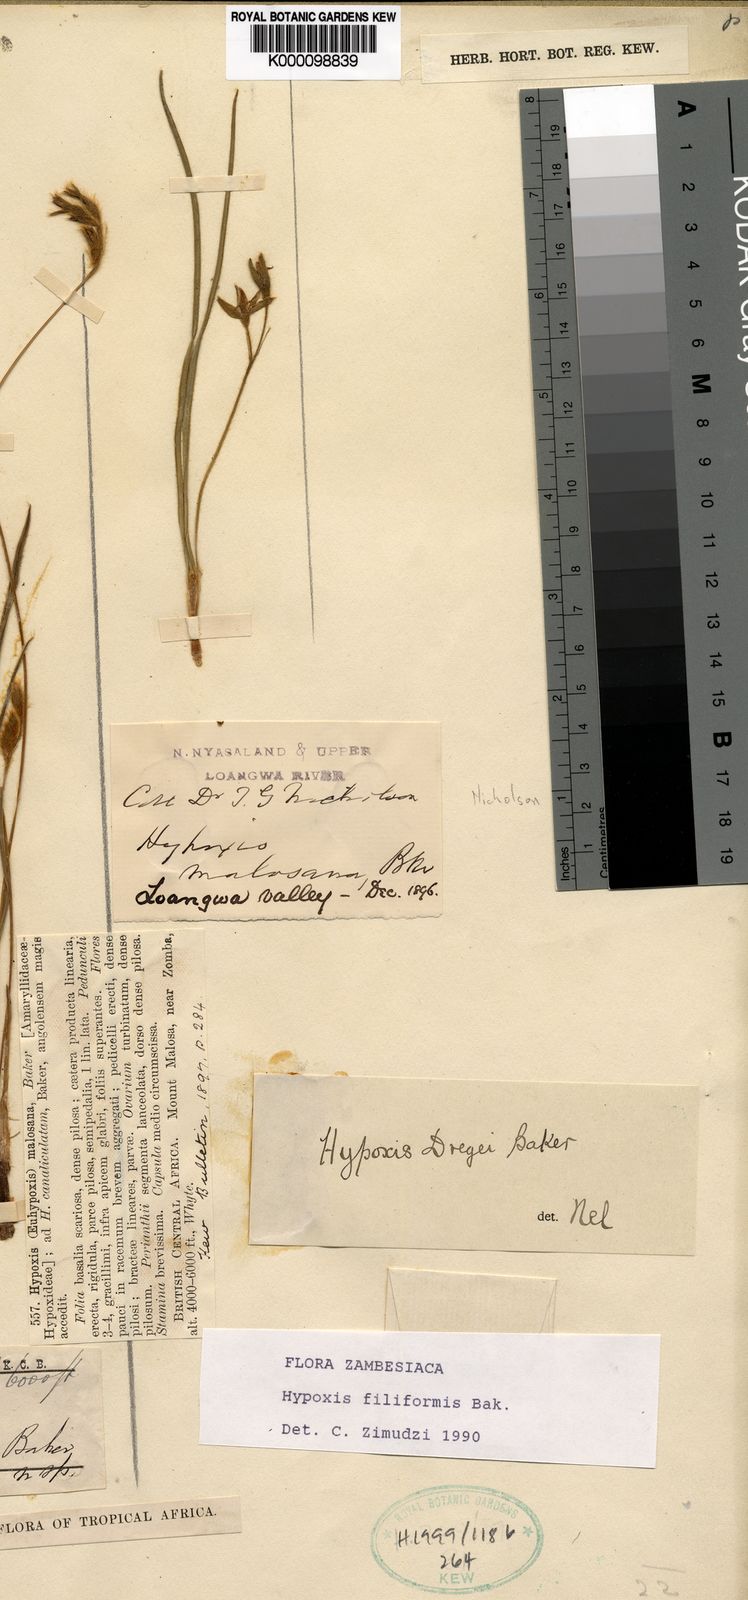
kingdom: Plantae
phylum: Tracheophyta
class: Liliopsida
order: Asparagales
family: Hypoxidaceae
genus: Hypoxis
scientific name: Hypoxis filiformis
